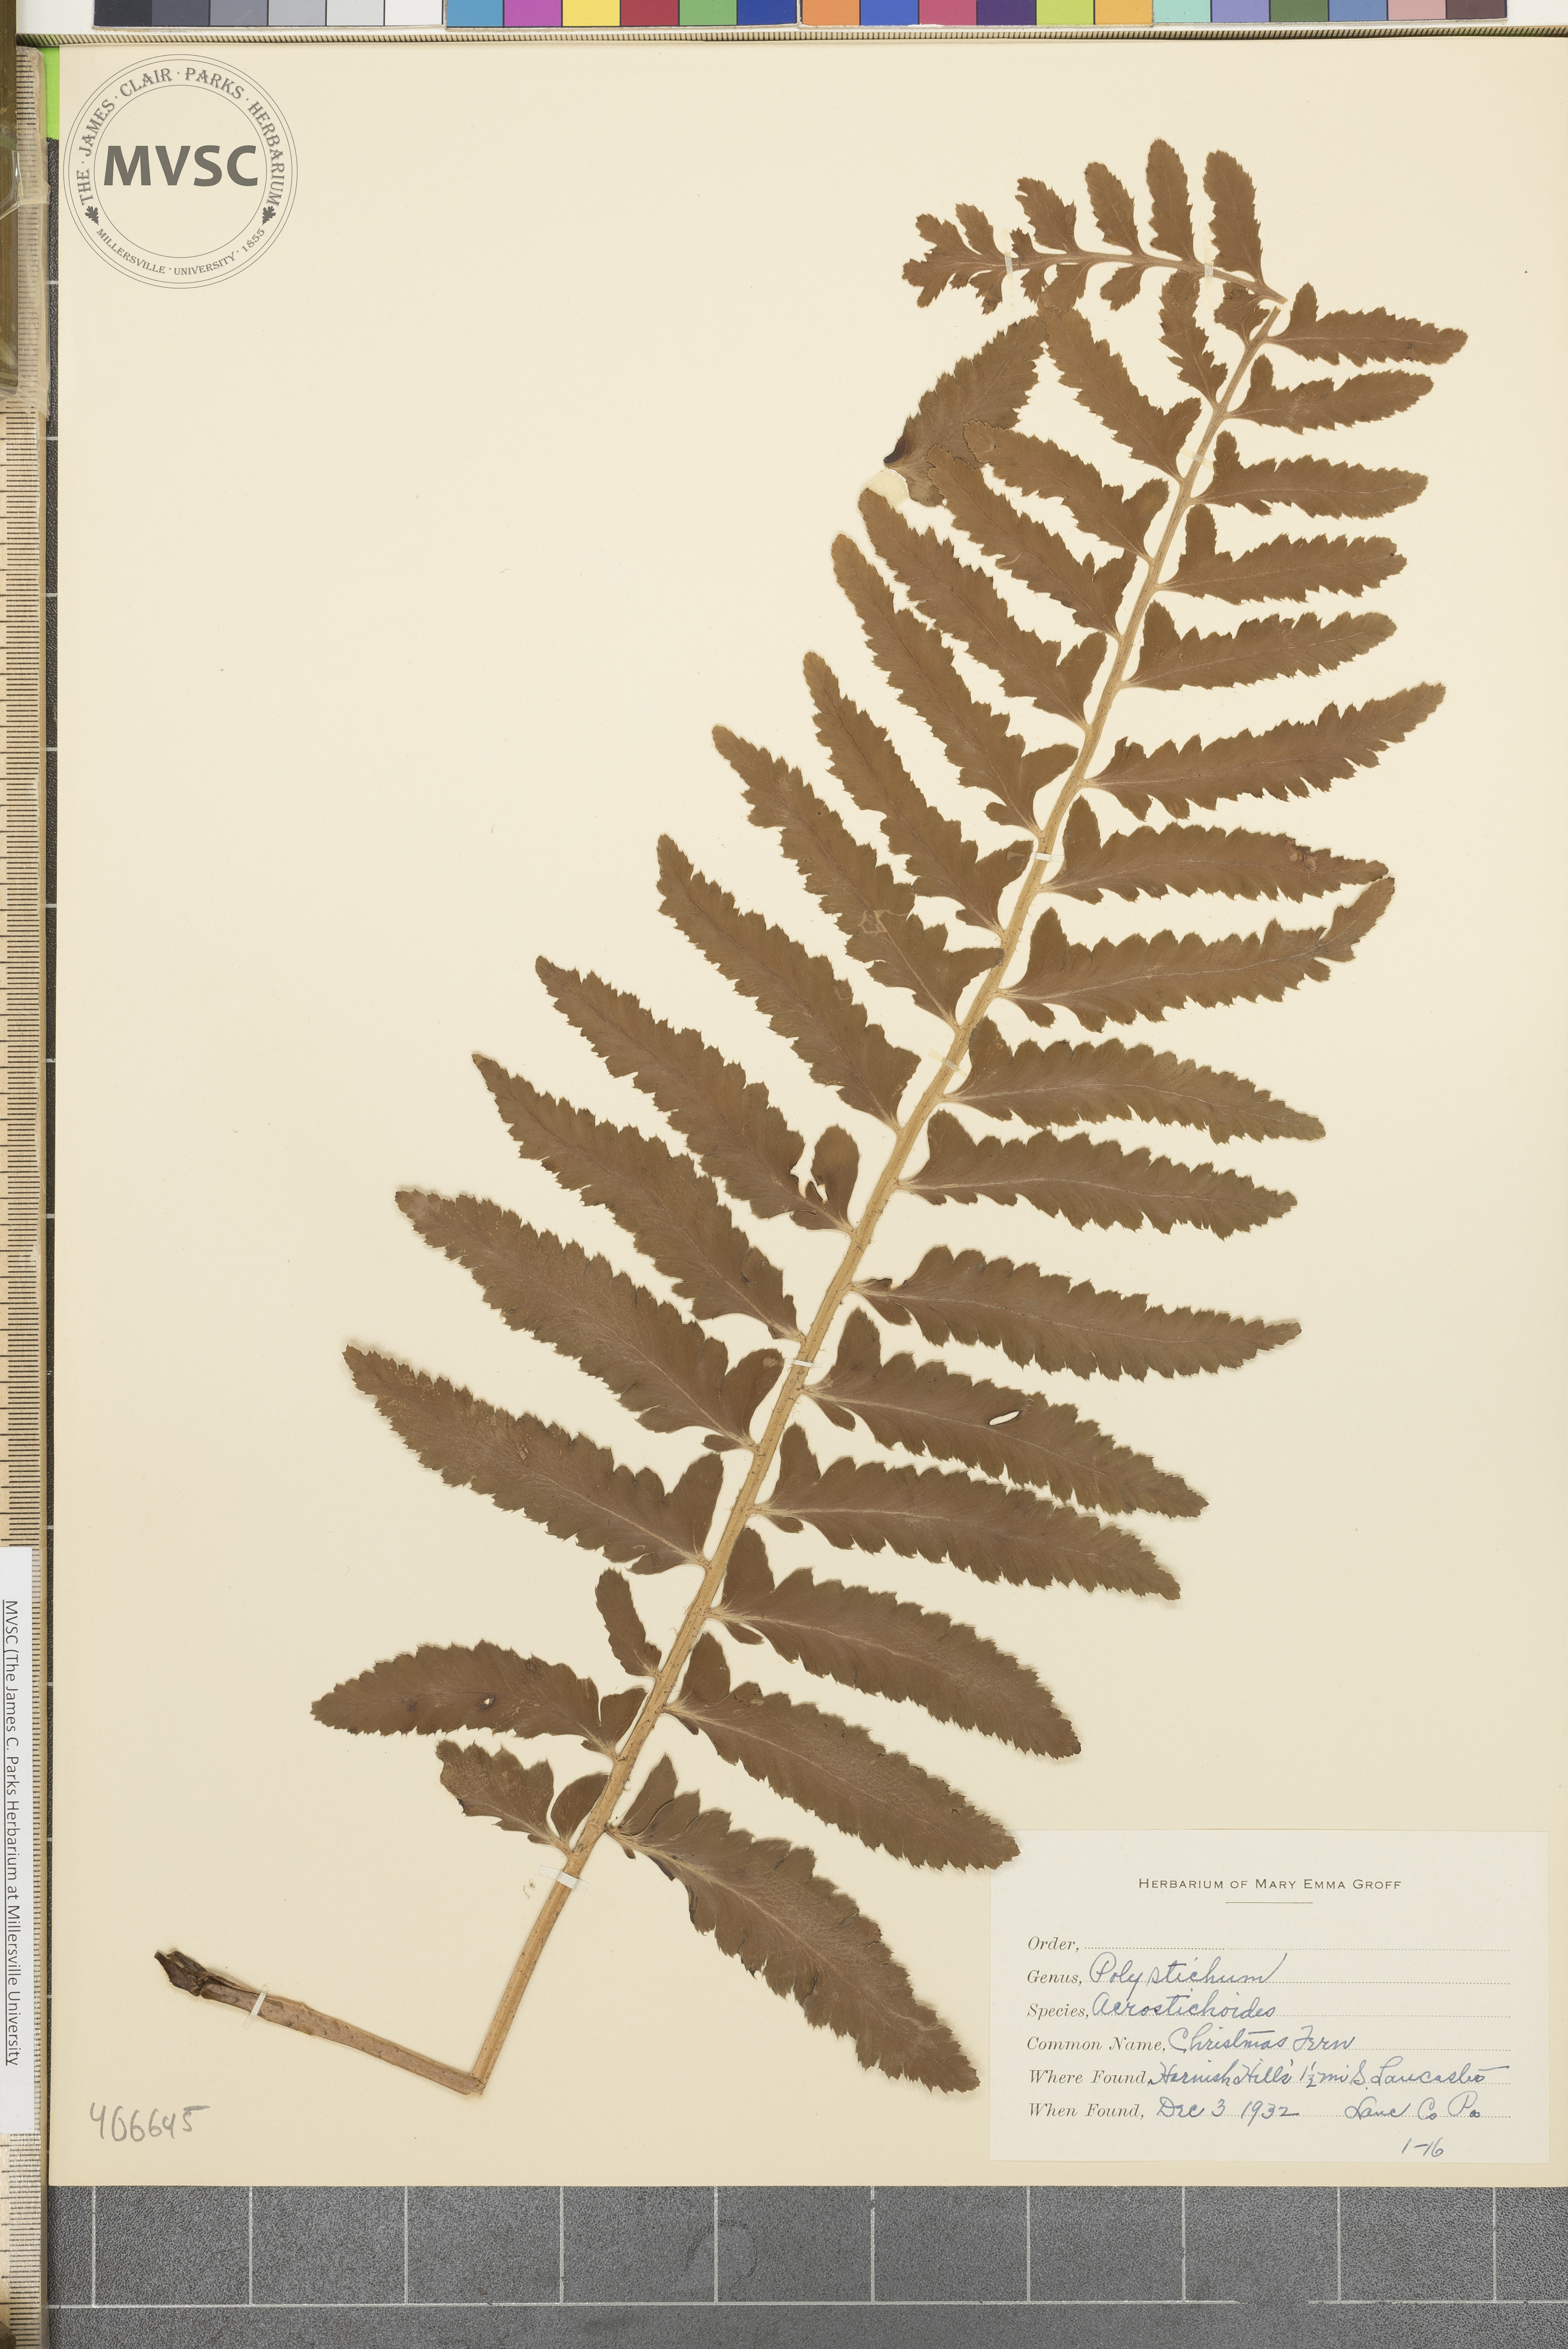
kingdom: Plantae
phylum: Tracheophyta
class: Polypodiopsida
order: Polypodiales
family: Dryopteridaceae
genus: Polystichum
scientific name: Polystichum acrostichoides
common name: Christmas fern
